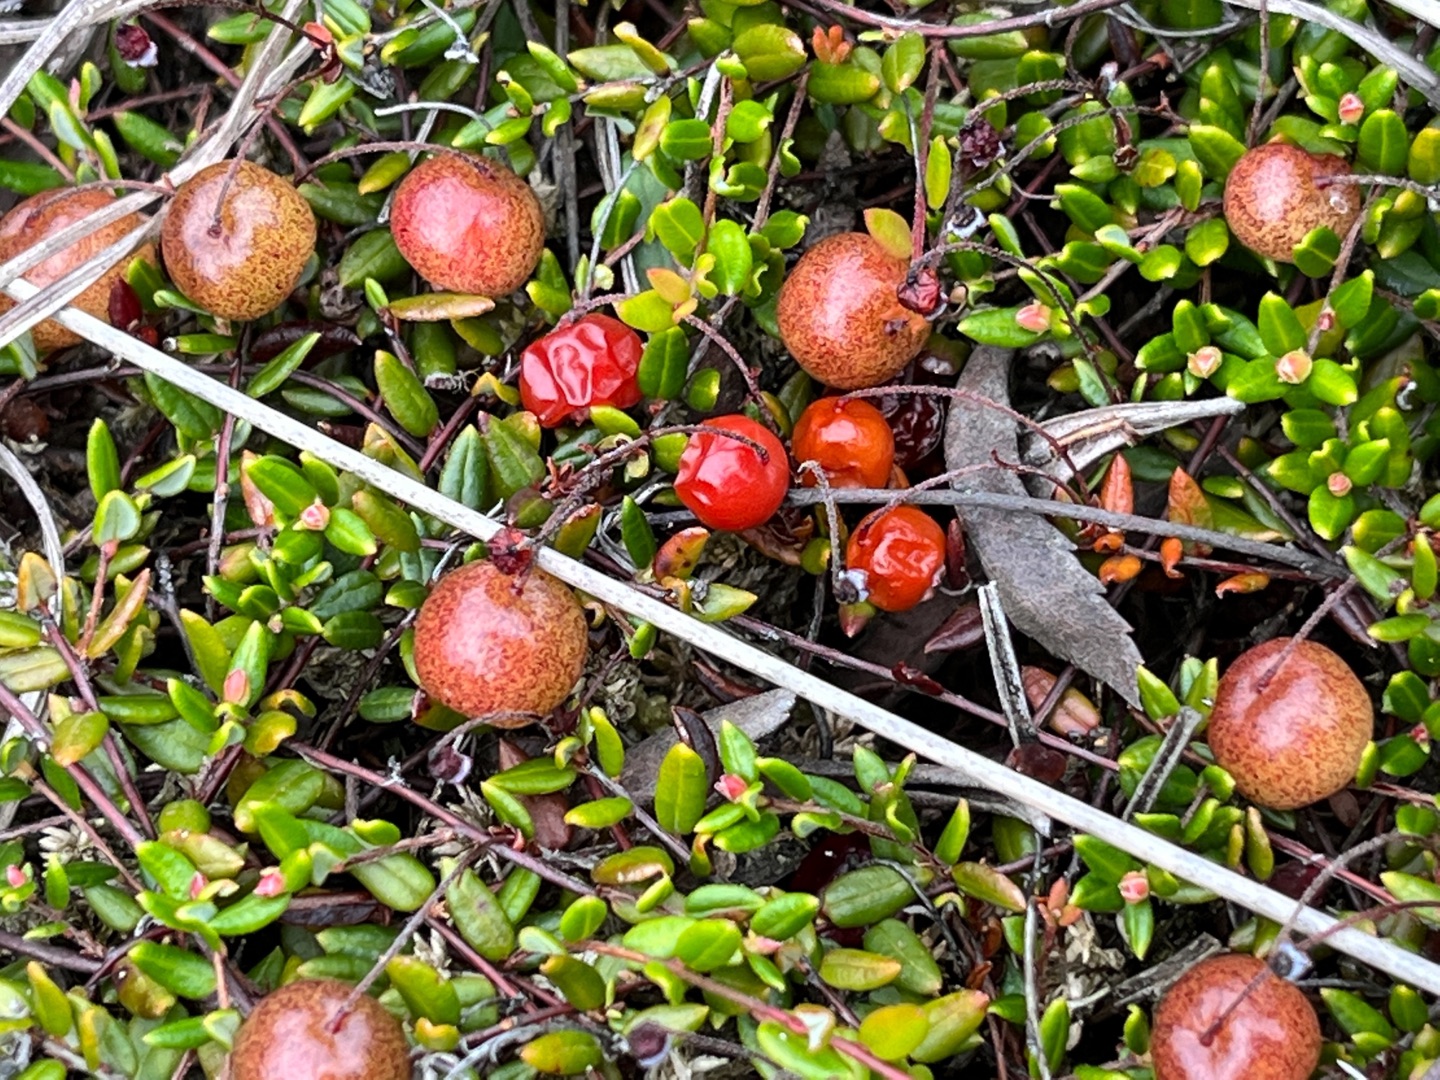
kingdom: Plantae
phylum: Tracheophyta
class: Magnoliopsida
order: Ericales
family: Ericaceae
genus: Vaccinium
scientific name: Vaccinium oxycoccos
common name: Tranebær
